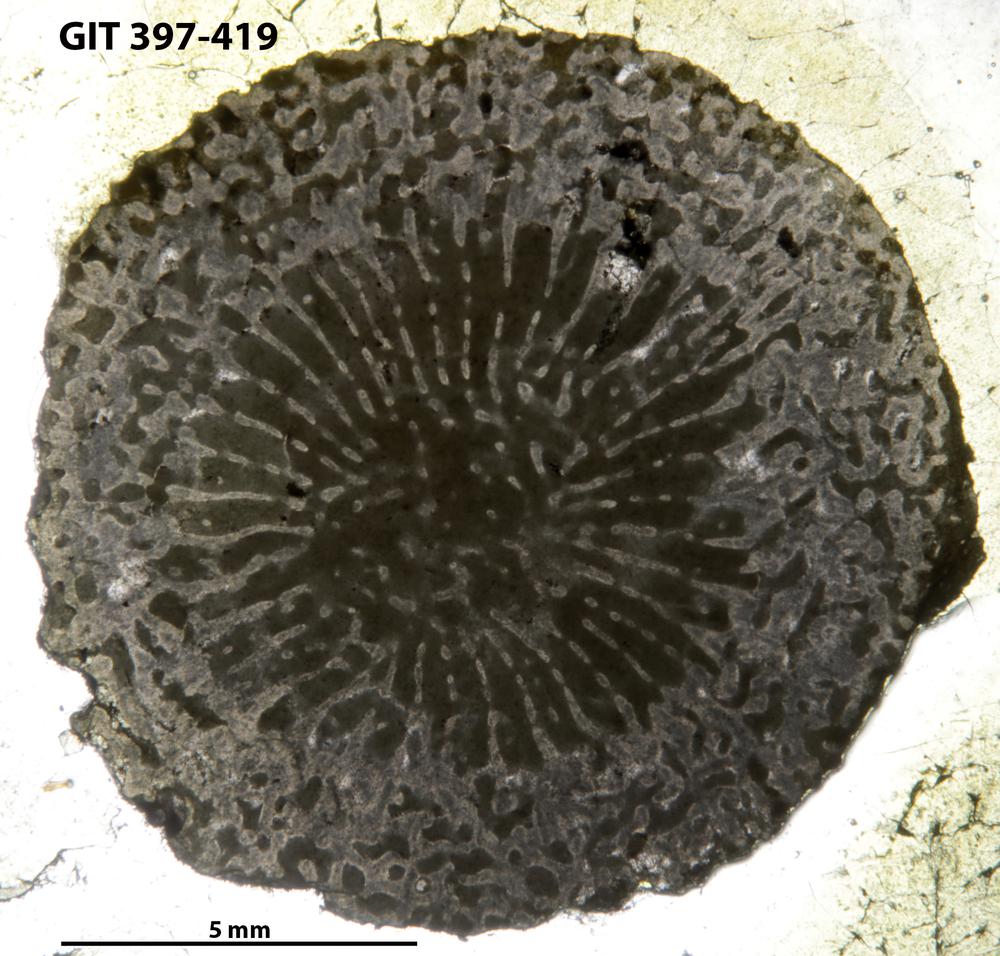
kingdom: Animalia
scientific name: Animalia
